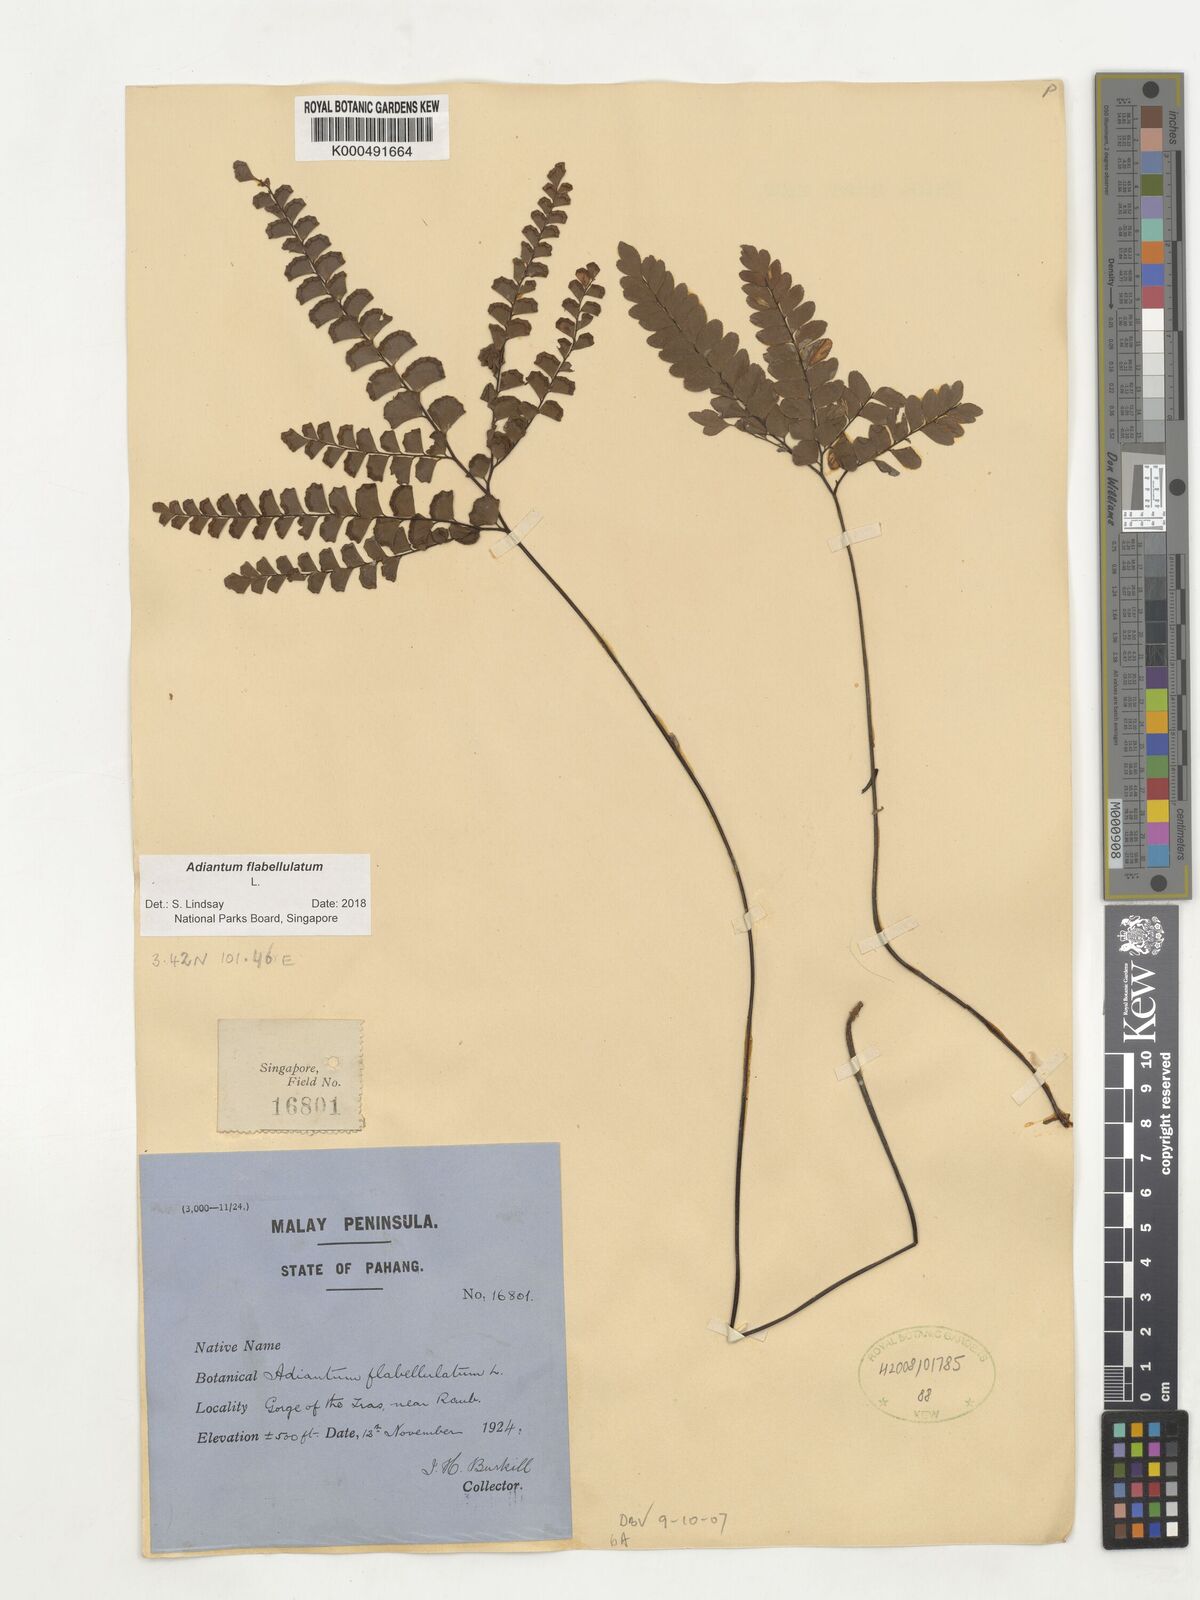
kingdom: Plantae
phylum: Tracheophyta
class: Polypodiopsida
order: Polypodiales
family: Pteridaceae
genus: Adiantum
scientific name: Adiantum flabellulatum
